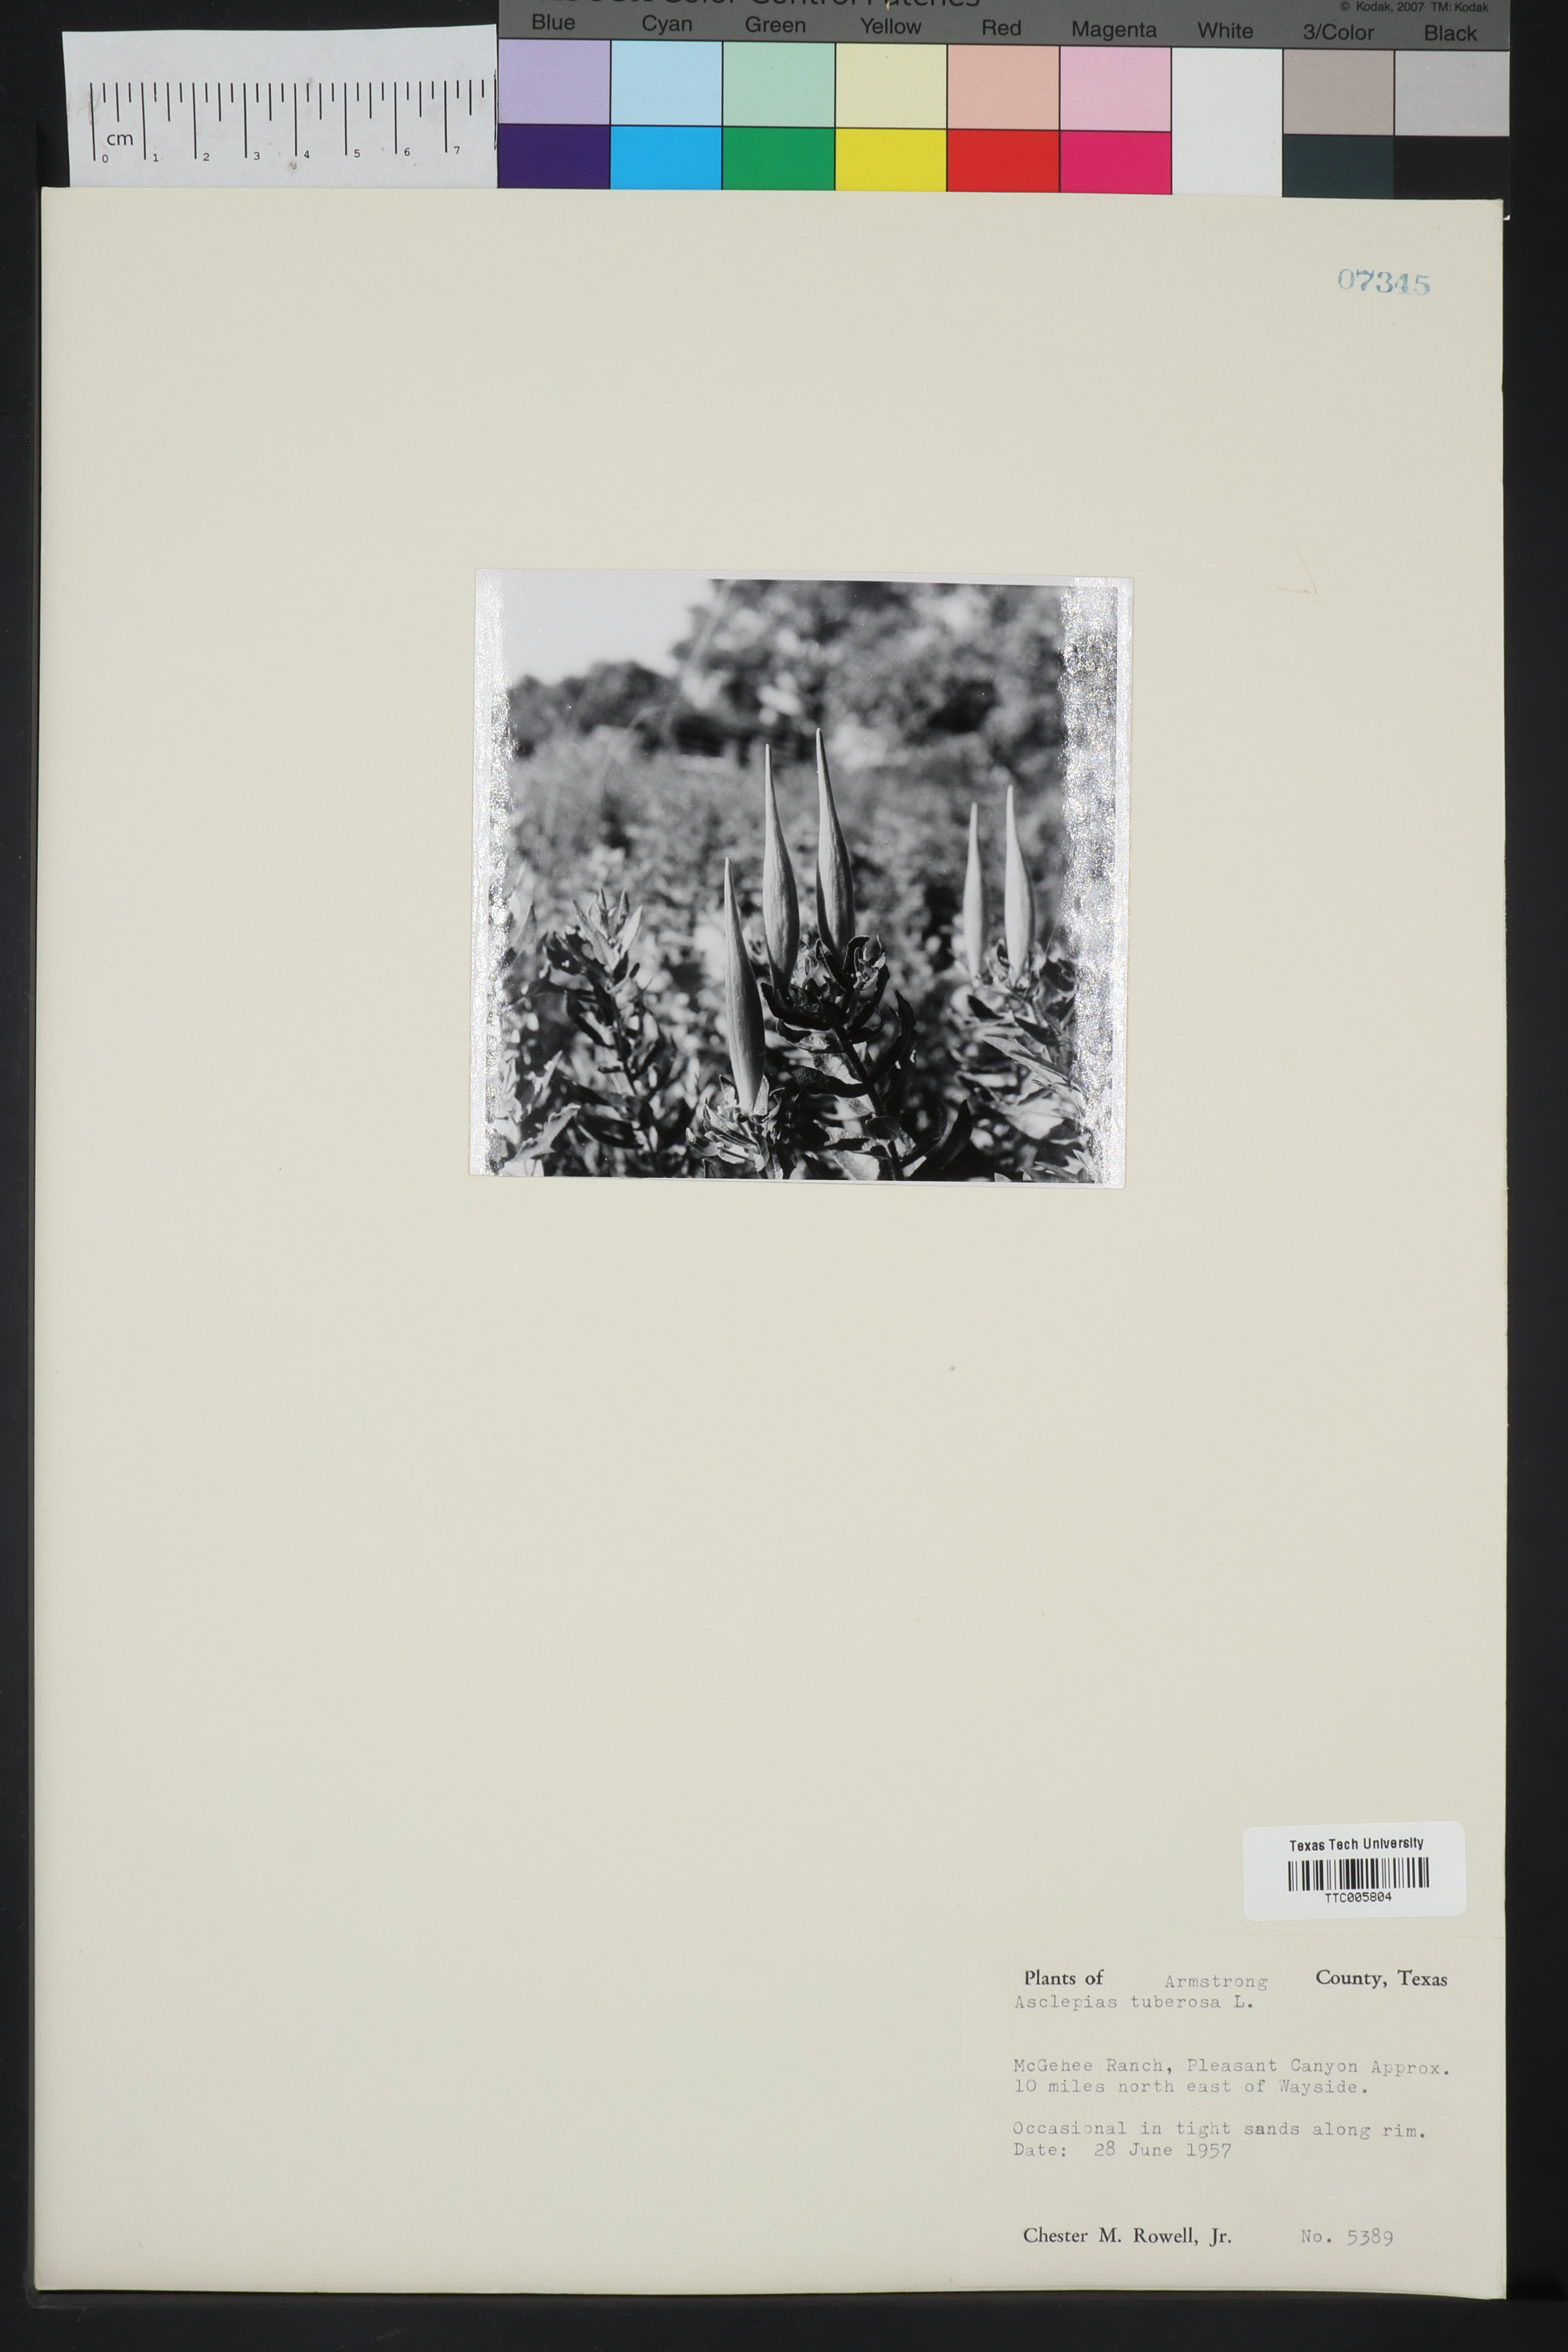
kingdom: Plantae
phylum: Tracheophyta
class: Magnoliopsida
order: Gentianales
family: Apocynaceae
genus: Asclepias
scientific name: Asclepias tuberosa
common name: Butterfly milkweed
